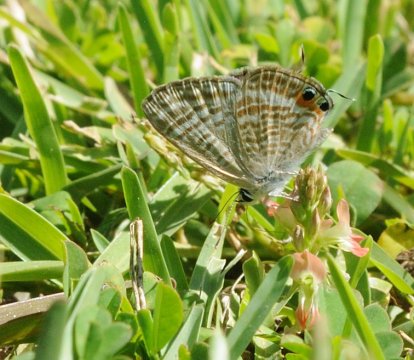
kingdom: Animalia
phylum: Arthropoda
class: Insecta
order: Lepidoptera
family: Lycaenidae
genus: Lampides
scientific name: Lampides boeticus
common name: Pea Blue
